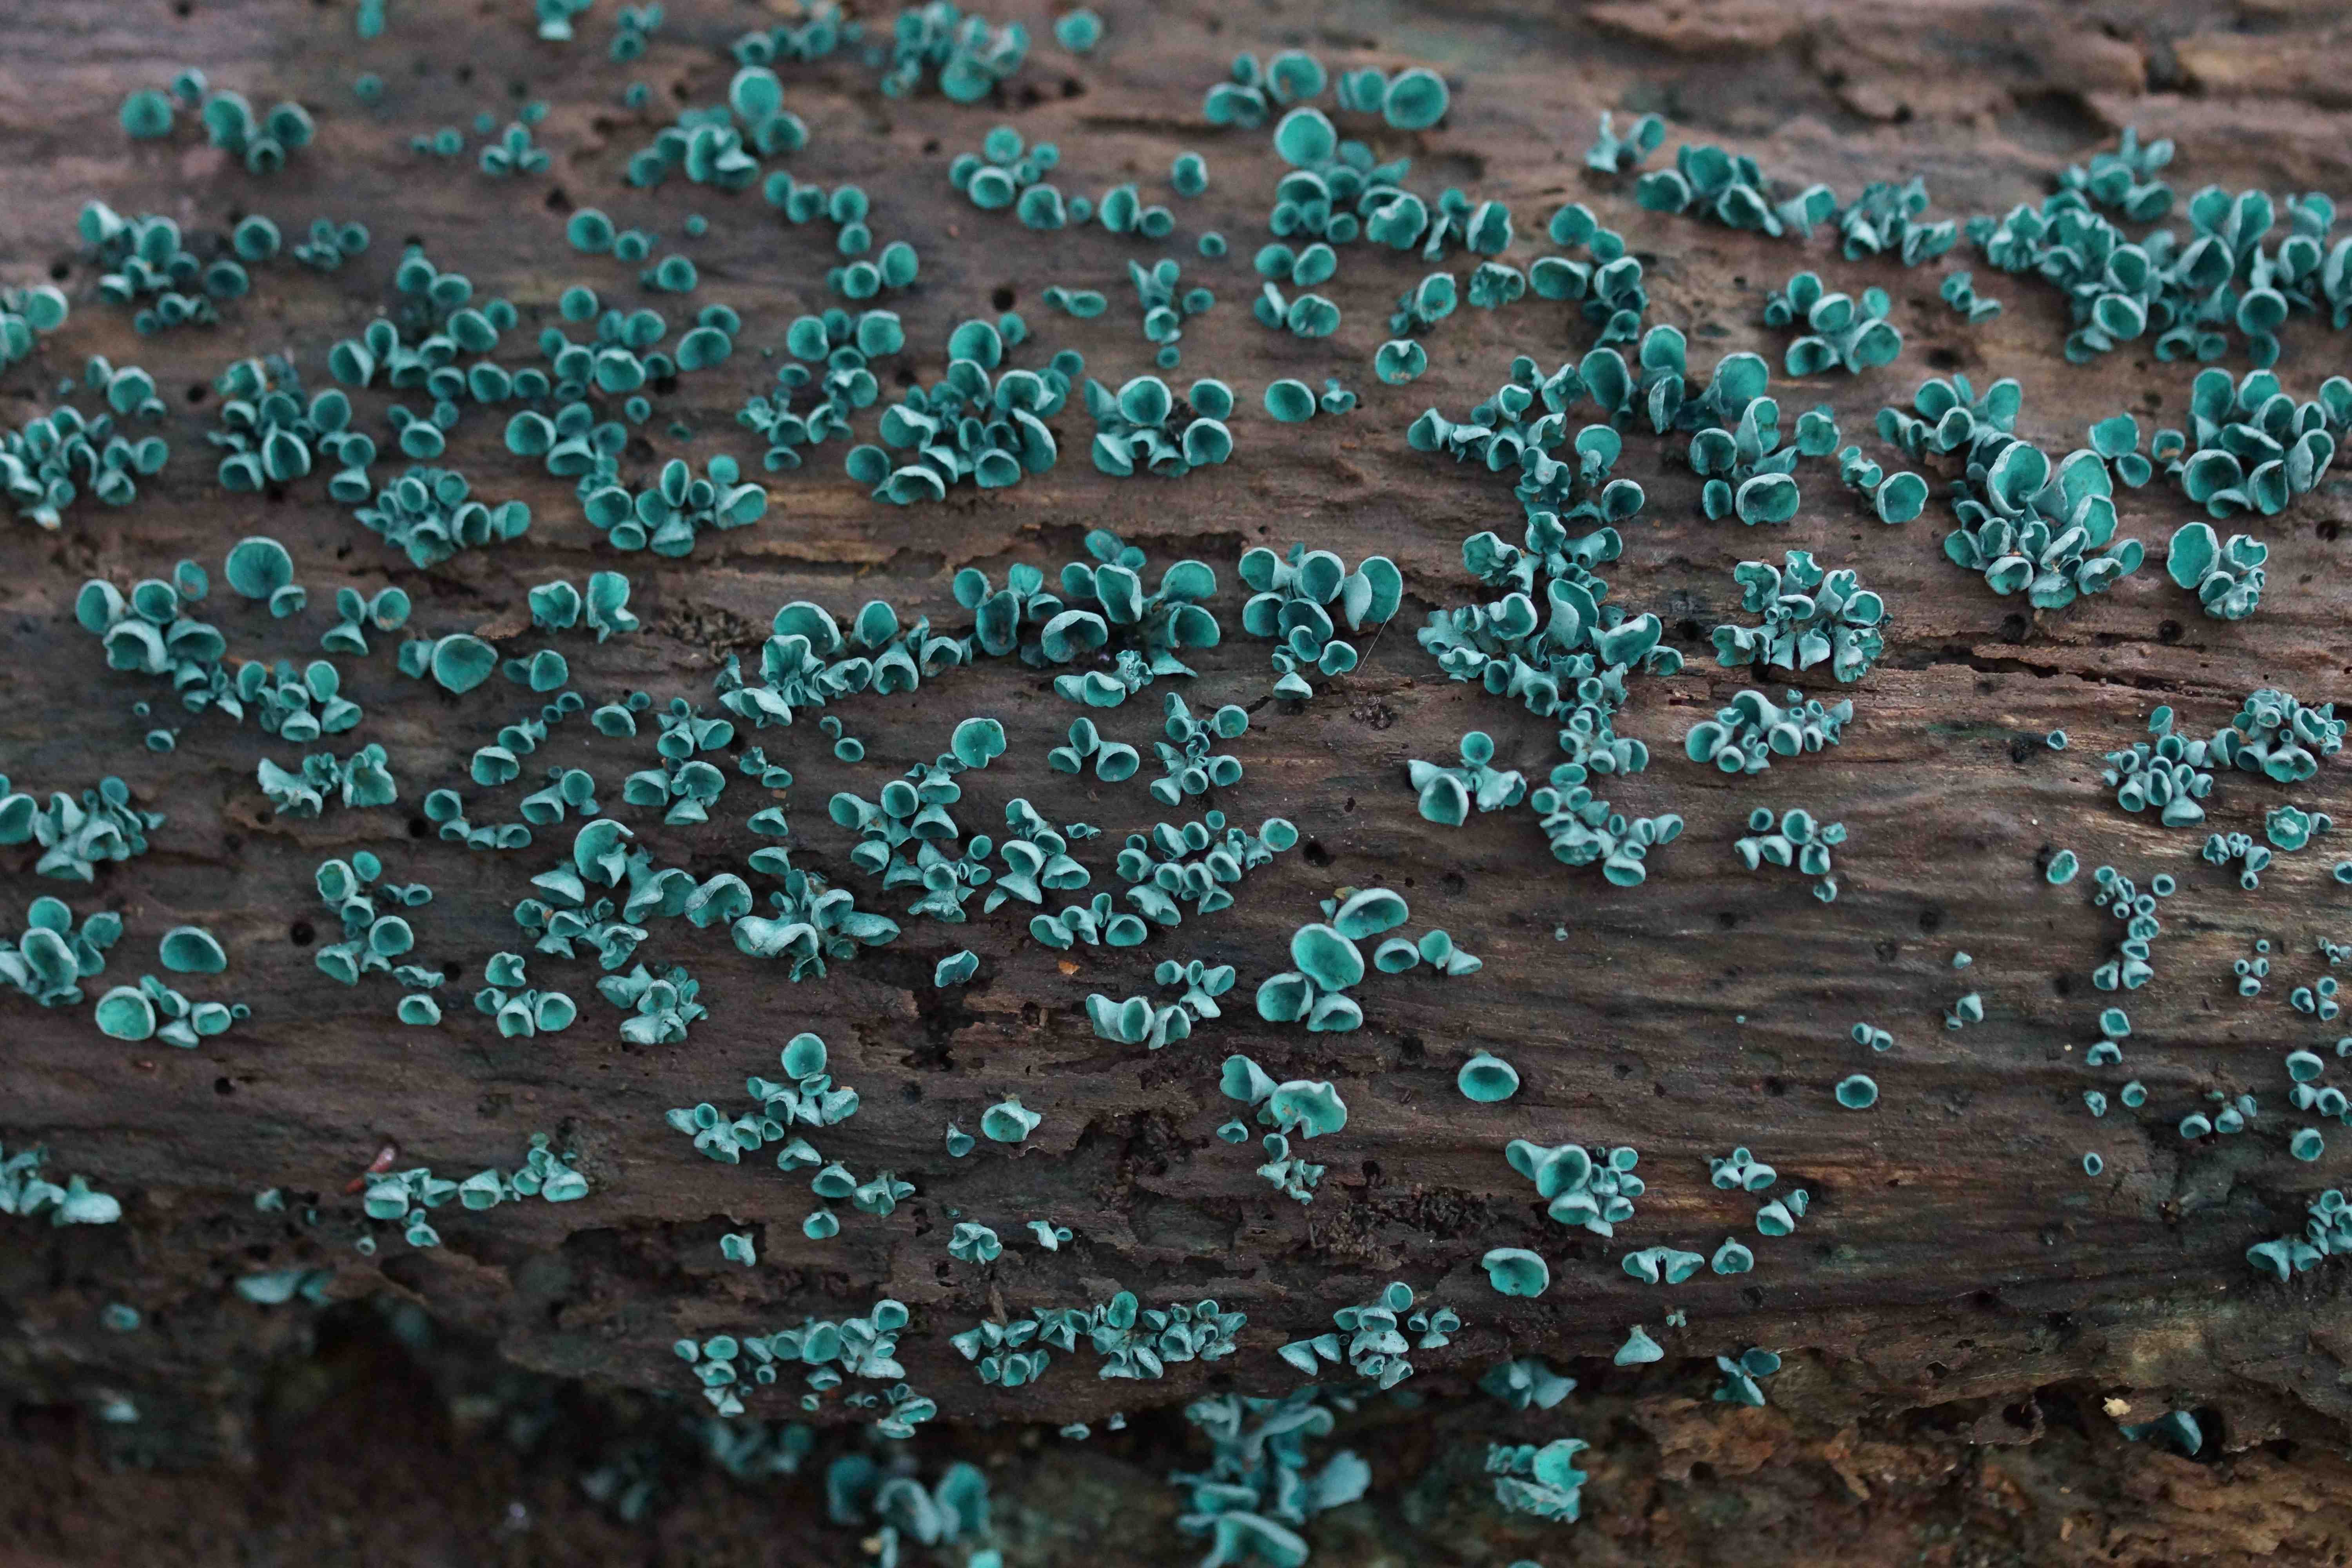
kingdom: Fungi
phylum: Ascomycota
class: Leotiomycetes
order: Helotiales
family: Chlorociboriaceae
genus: Chlorociboria
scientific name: Chlorociboria aeruginascens
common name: almindelig grønskive
